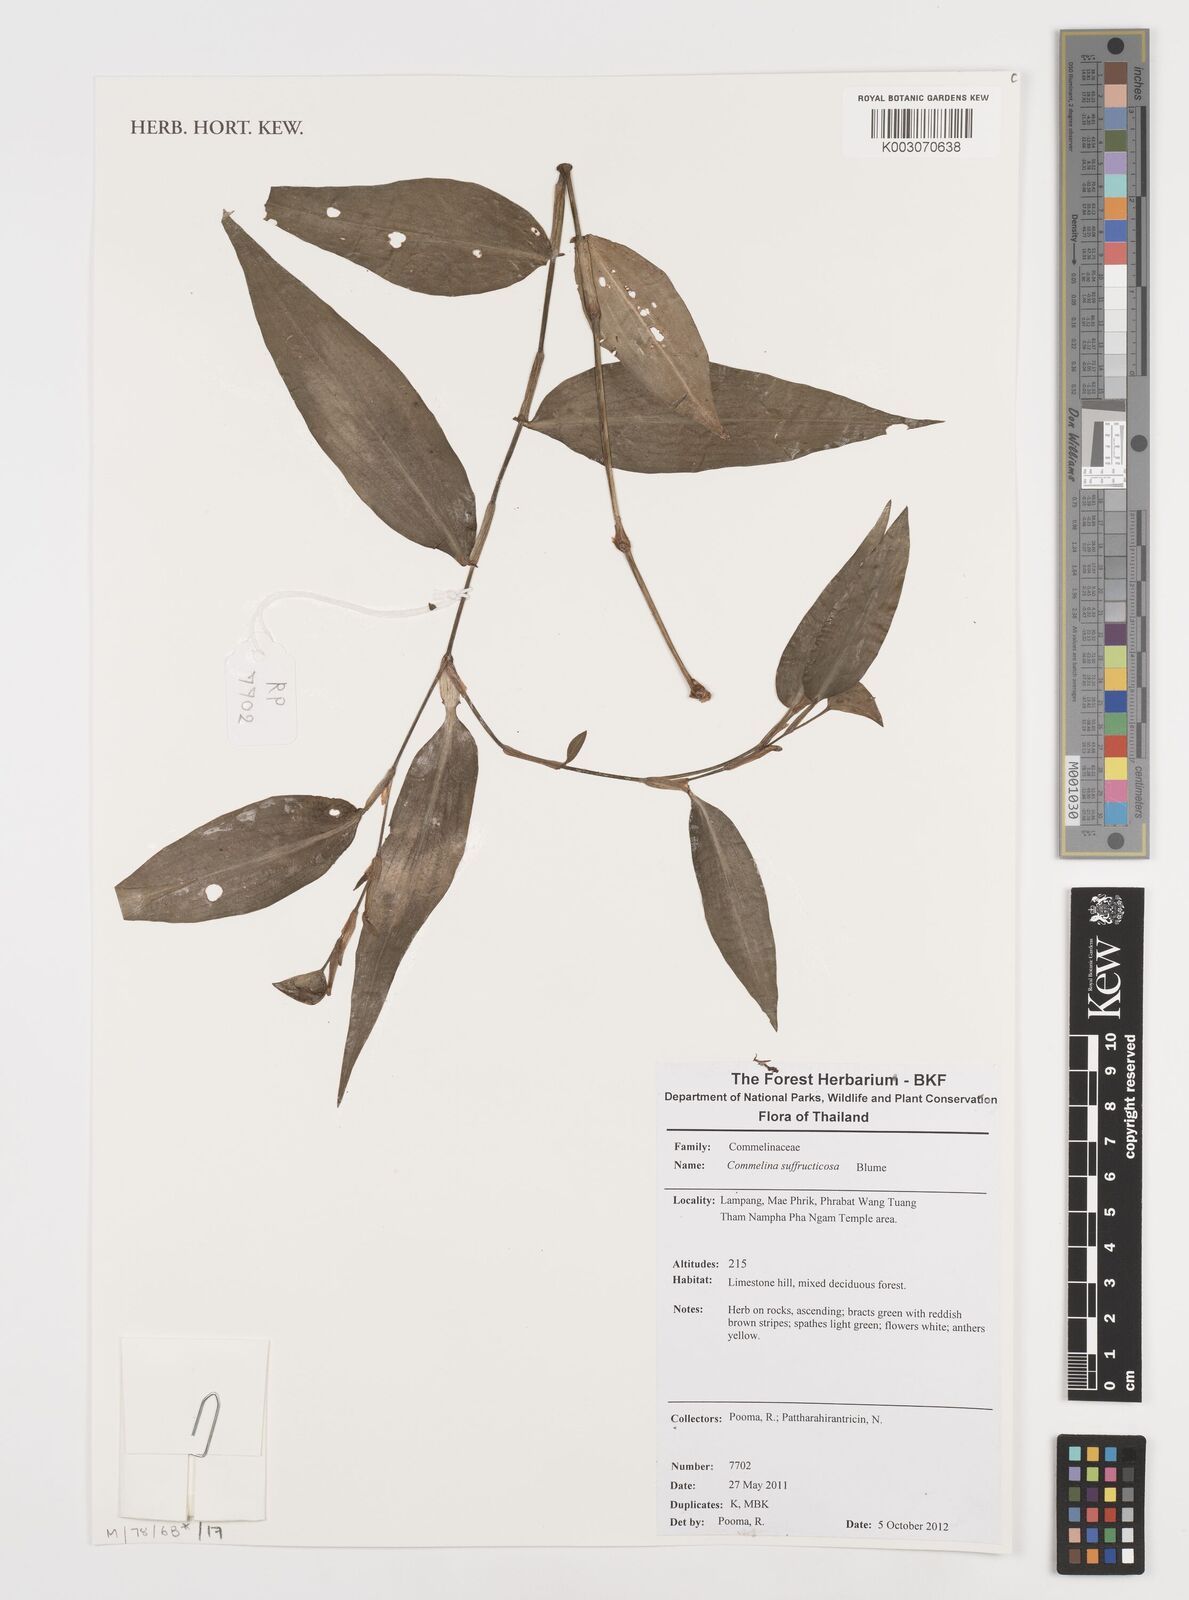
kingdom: Plantae
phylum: Tracheophyta
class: Liliopsida
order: Commelinales
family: Commelinaceae
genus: Commelina
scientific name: Commelina suffruticosa
